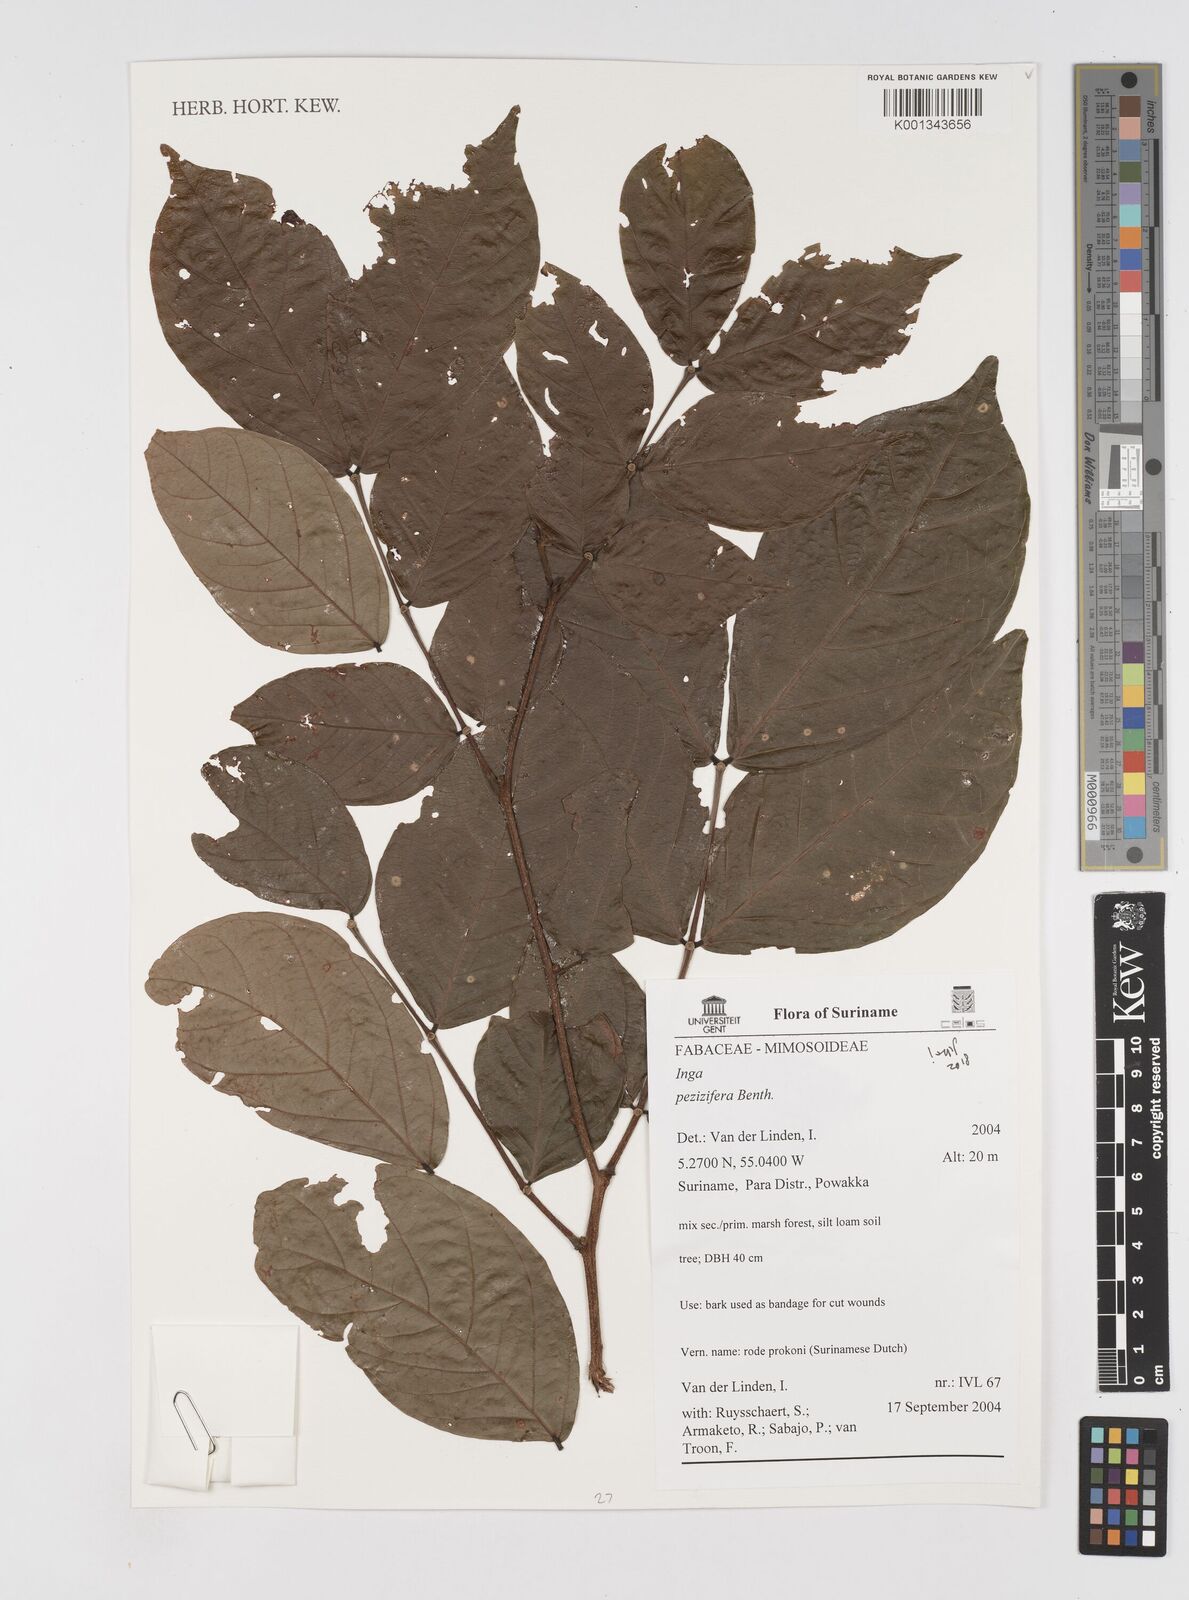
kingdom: Plantae
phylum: Tracheophyta
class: Magnoliopsida
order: Fabales
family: Fabaceae
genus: Inga
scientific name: Inga pezizifera
